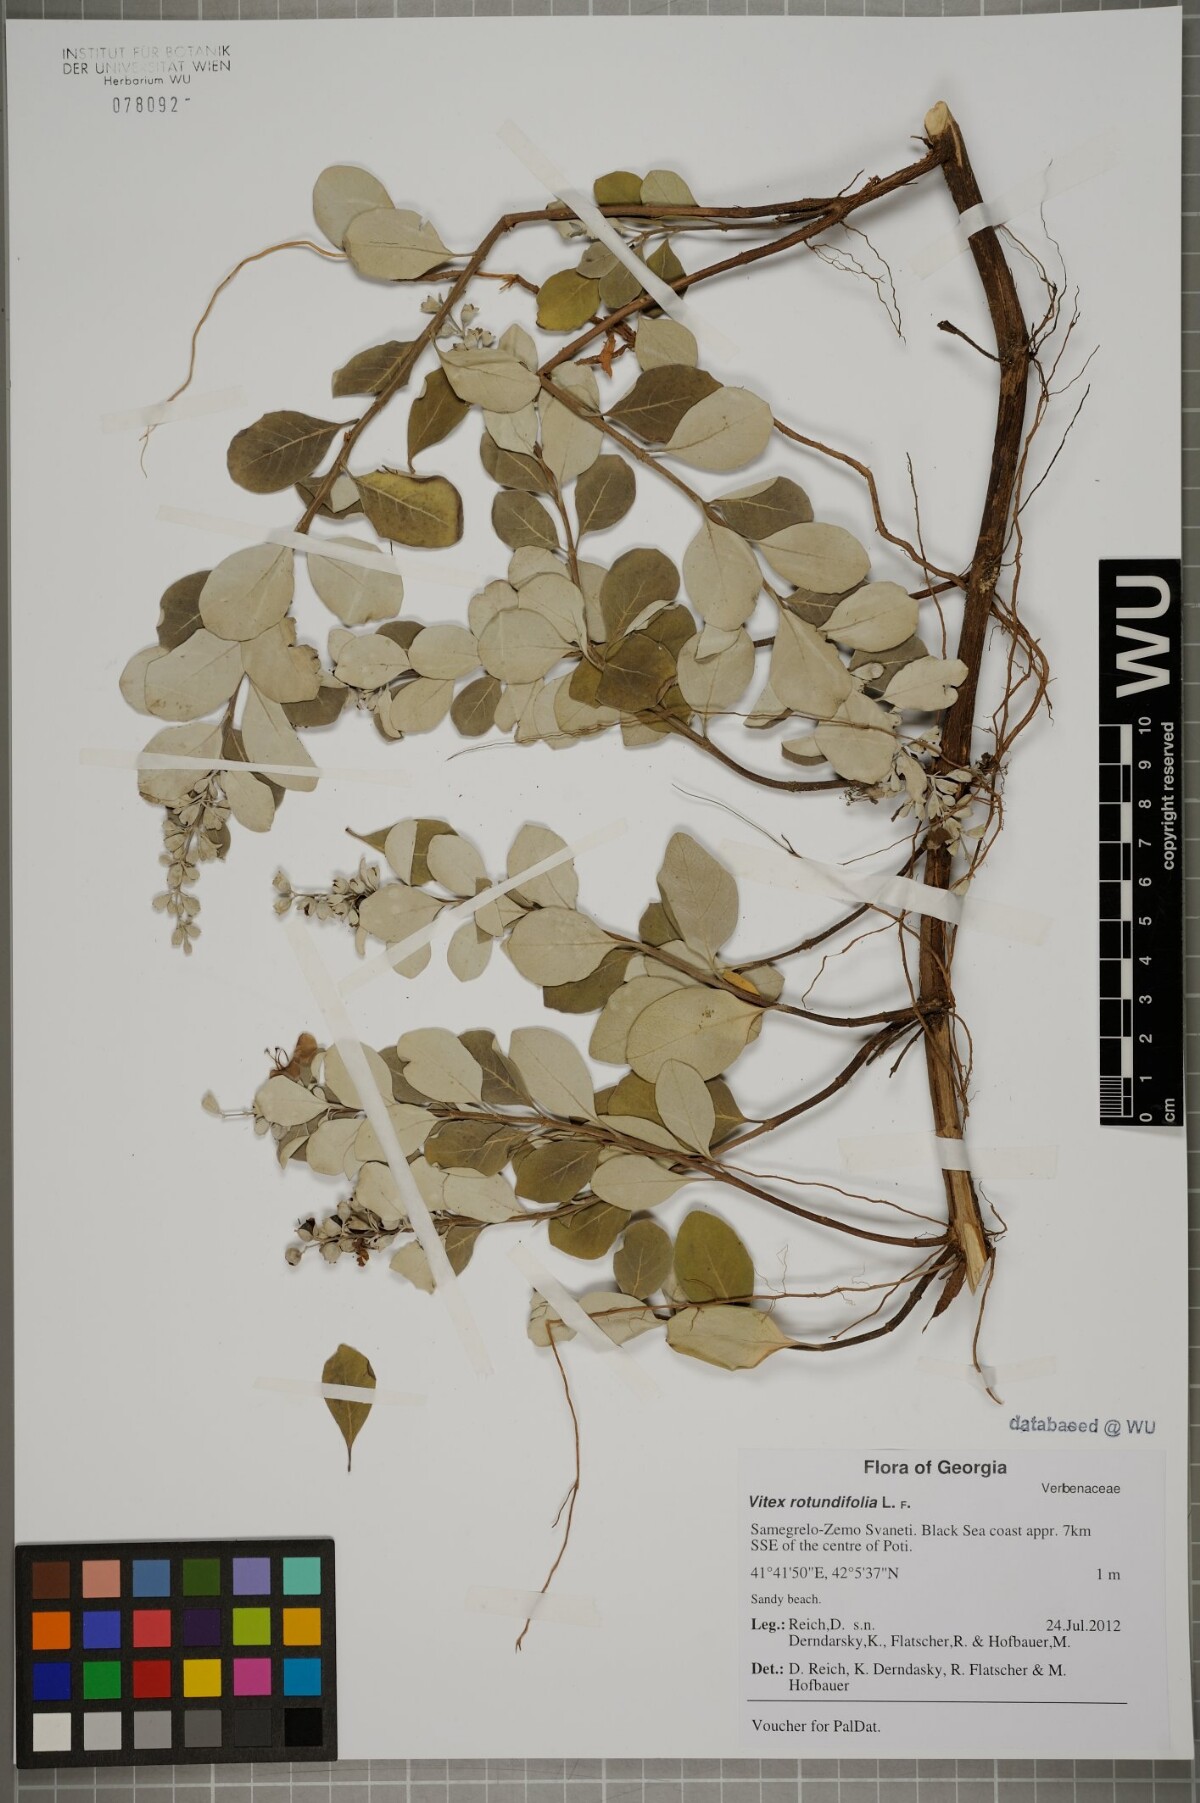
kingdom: Plantae
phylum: Tracheophyta
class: Magnoliopsida
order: Lamiales
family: Lamiaceae
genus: Vitex
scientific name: Vitex rotundifolia
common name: Beach vitex
